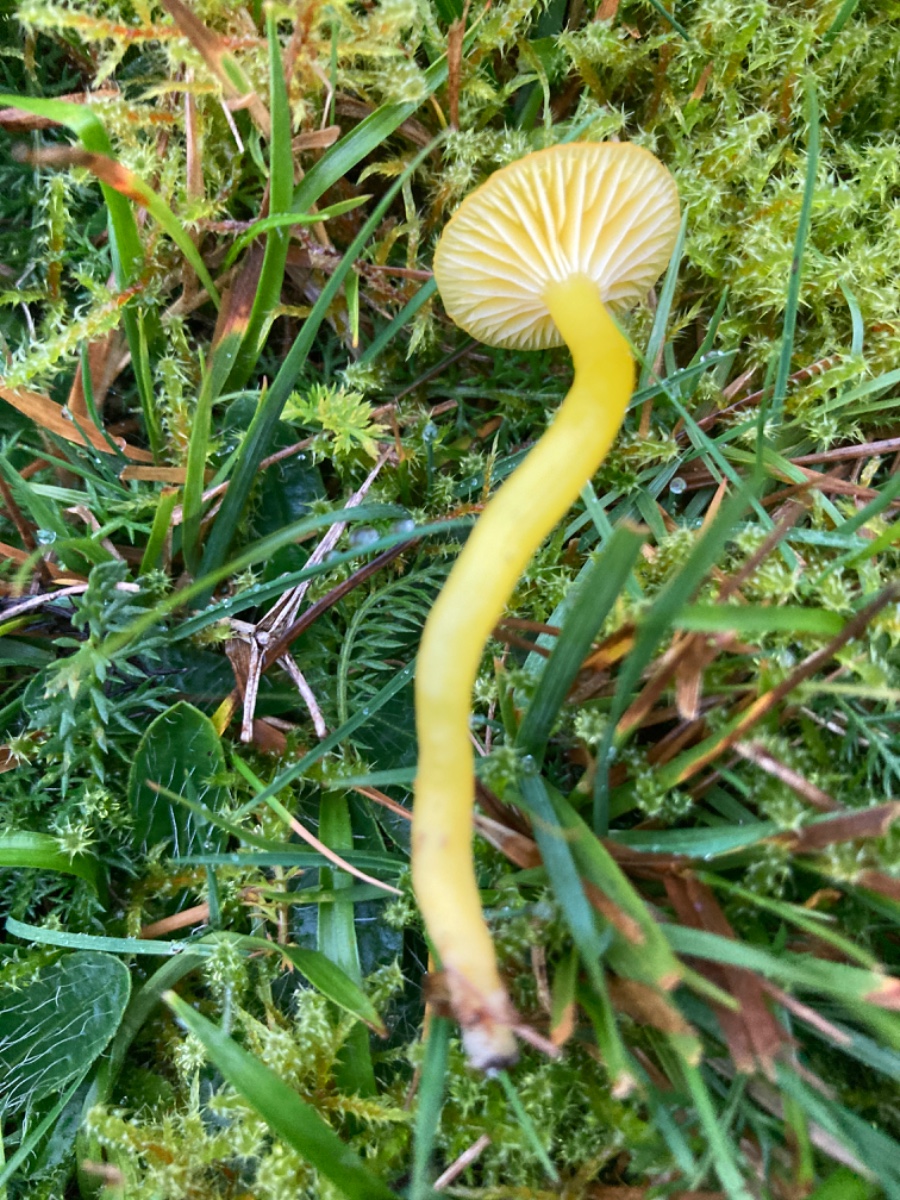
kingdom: Fungi
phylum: Basidiomycota
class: Agaricomycetes
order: Agaricales
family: Hygrophoraceae
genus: Hygrocybe
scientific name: Hygrocybe ceracea
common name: voksgul vokshat
